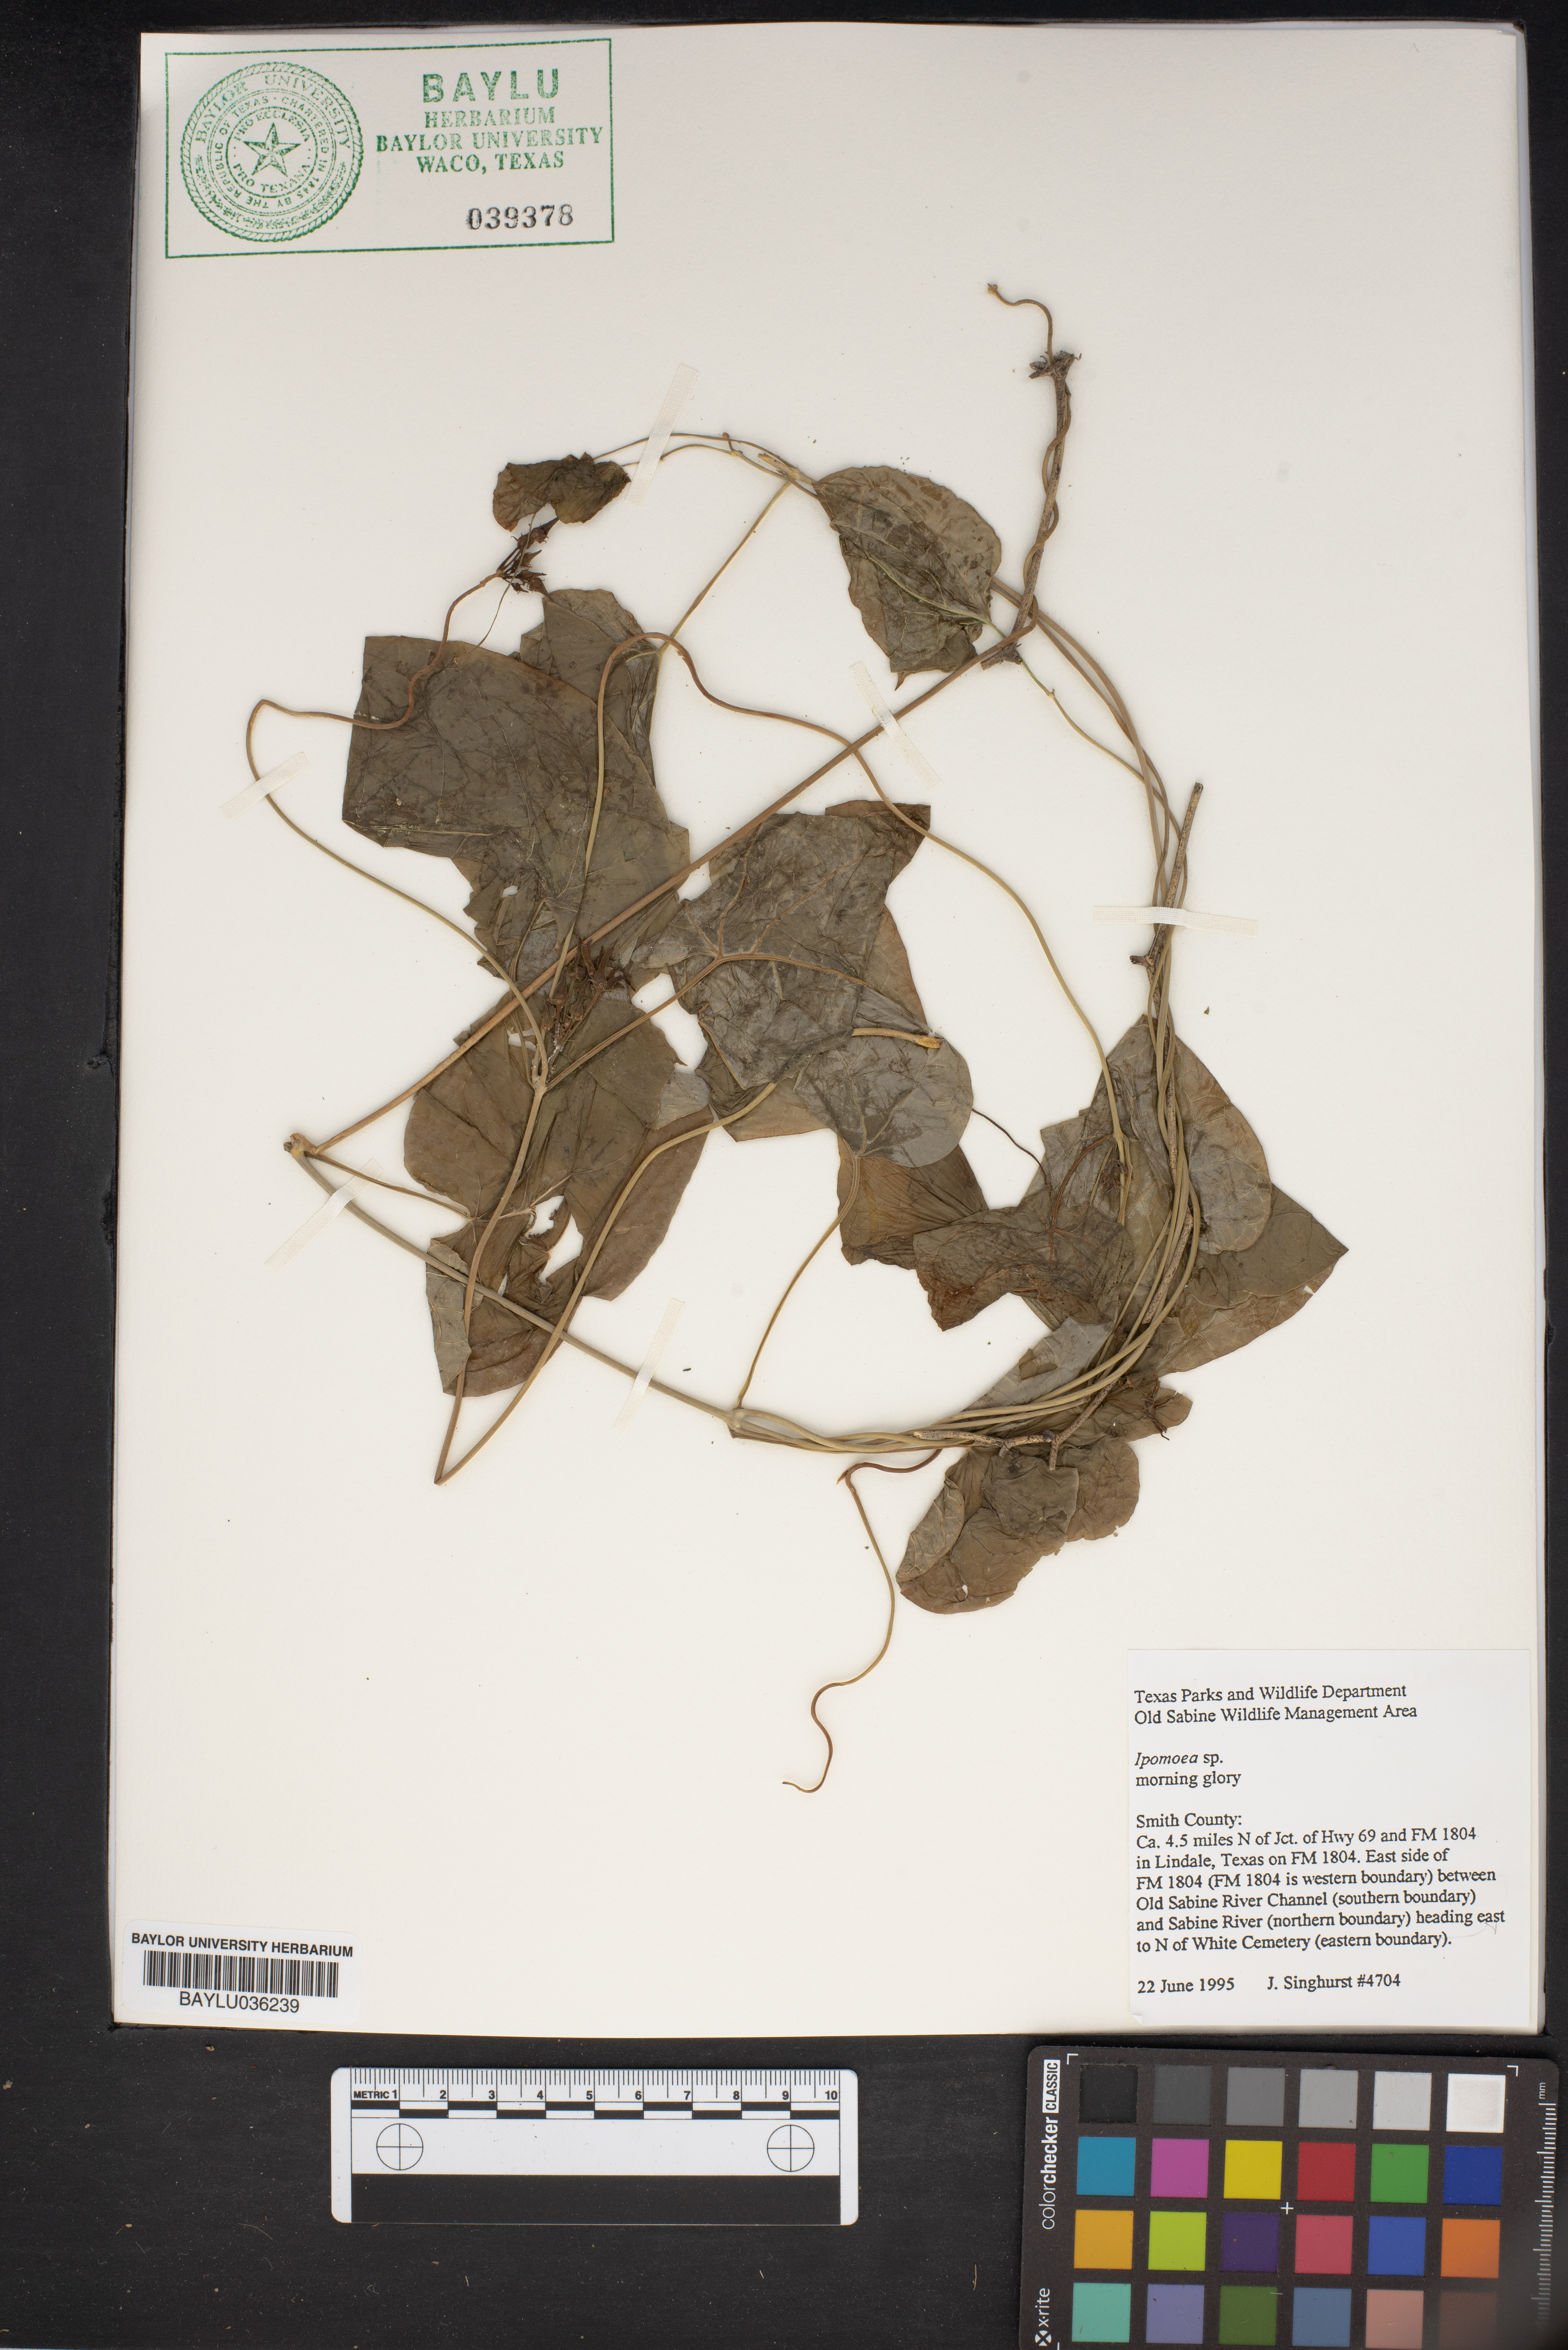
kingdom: Plantae
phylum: Tracheophyta
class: Magnoliopsida
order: Solanales
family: Convolvulaceae
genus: Ipomoea
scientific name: Ipomoea
